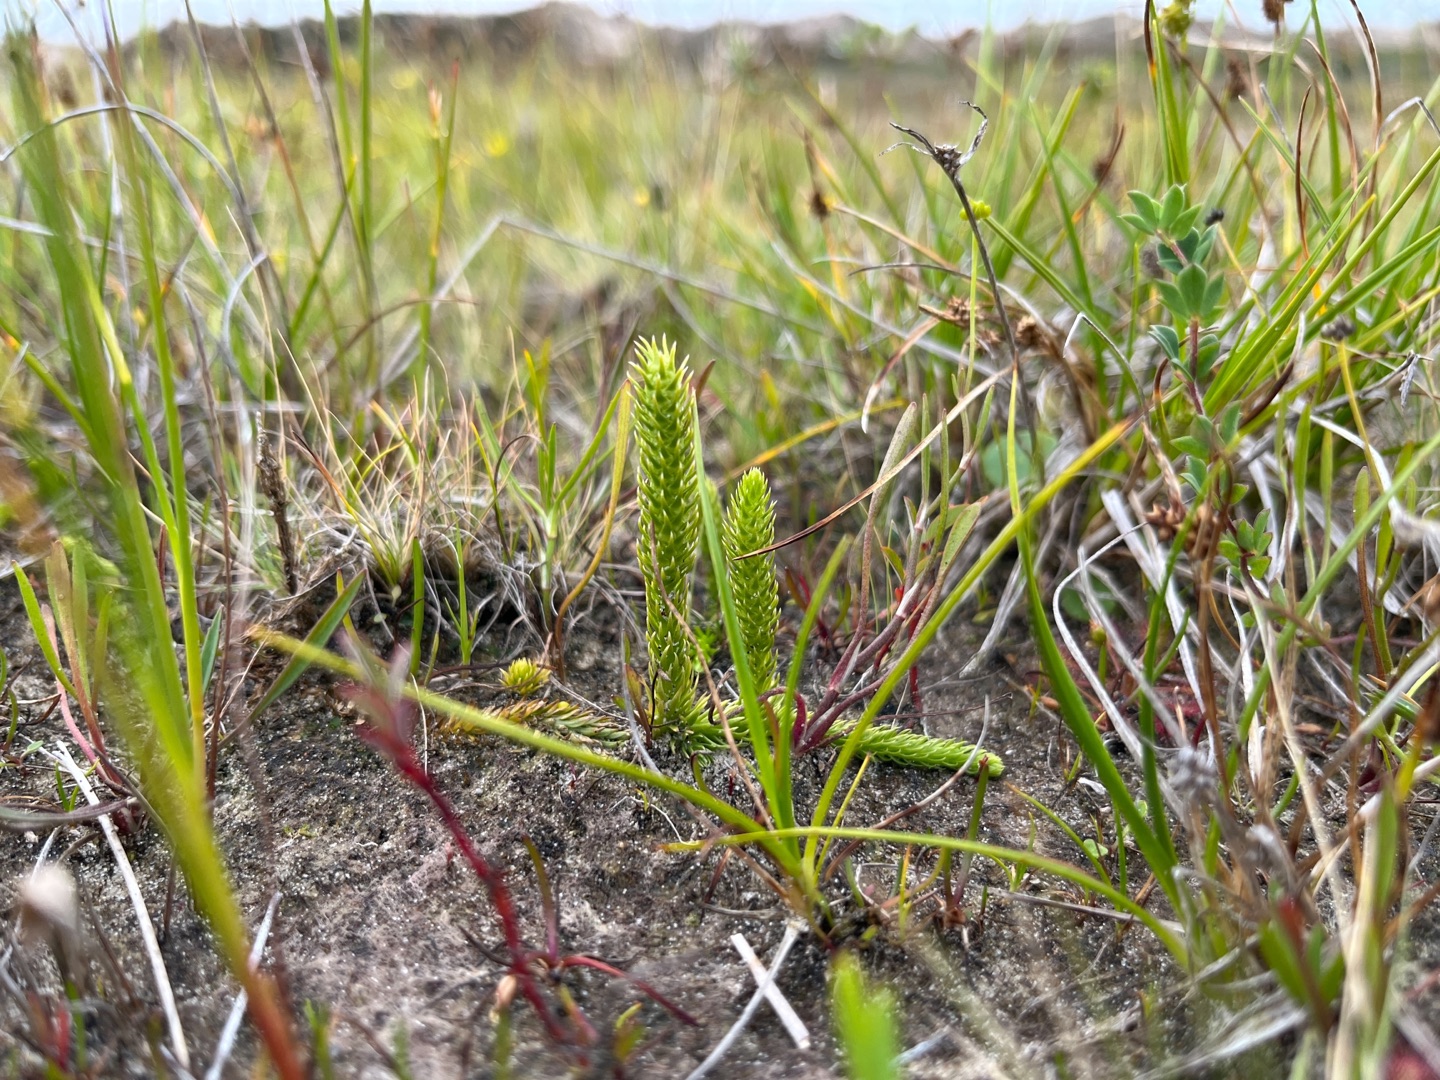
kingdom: Plantae
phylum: Tracheophyta
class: Lycopodiopsida
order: Lycopodiales
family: Lycopodiaceae
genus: Lycopodiella
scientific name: Lycopodiella inundata
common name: Liden ulvefod
